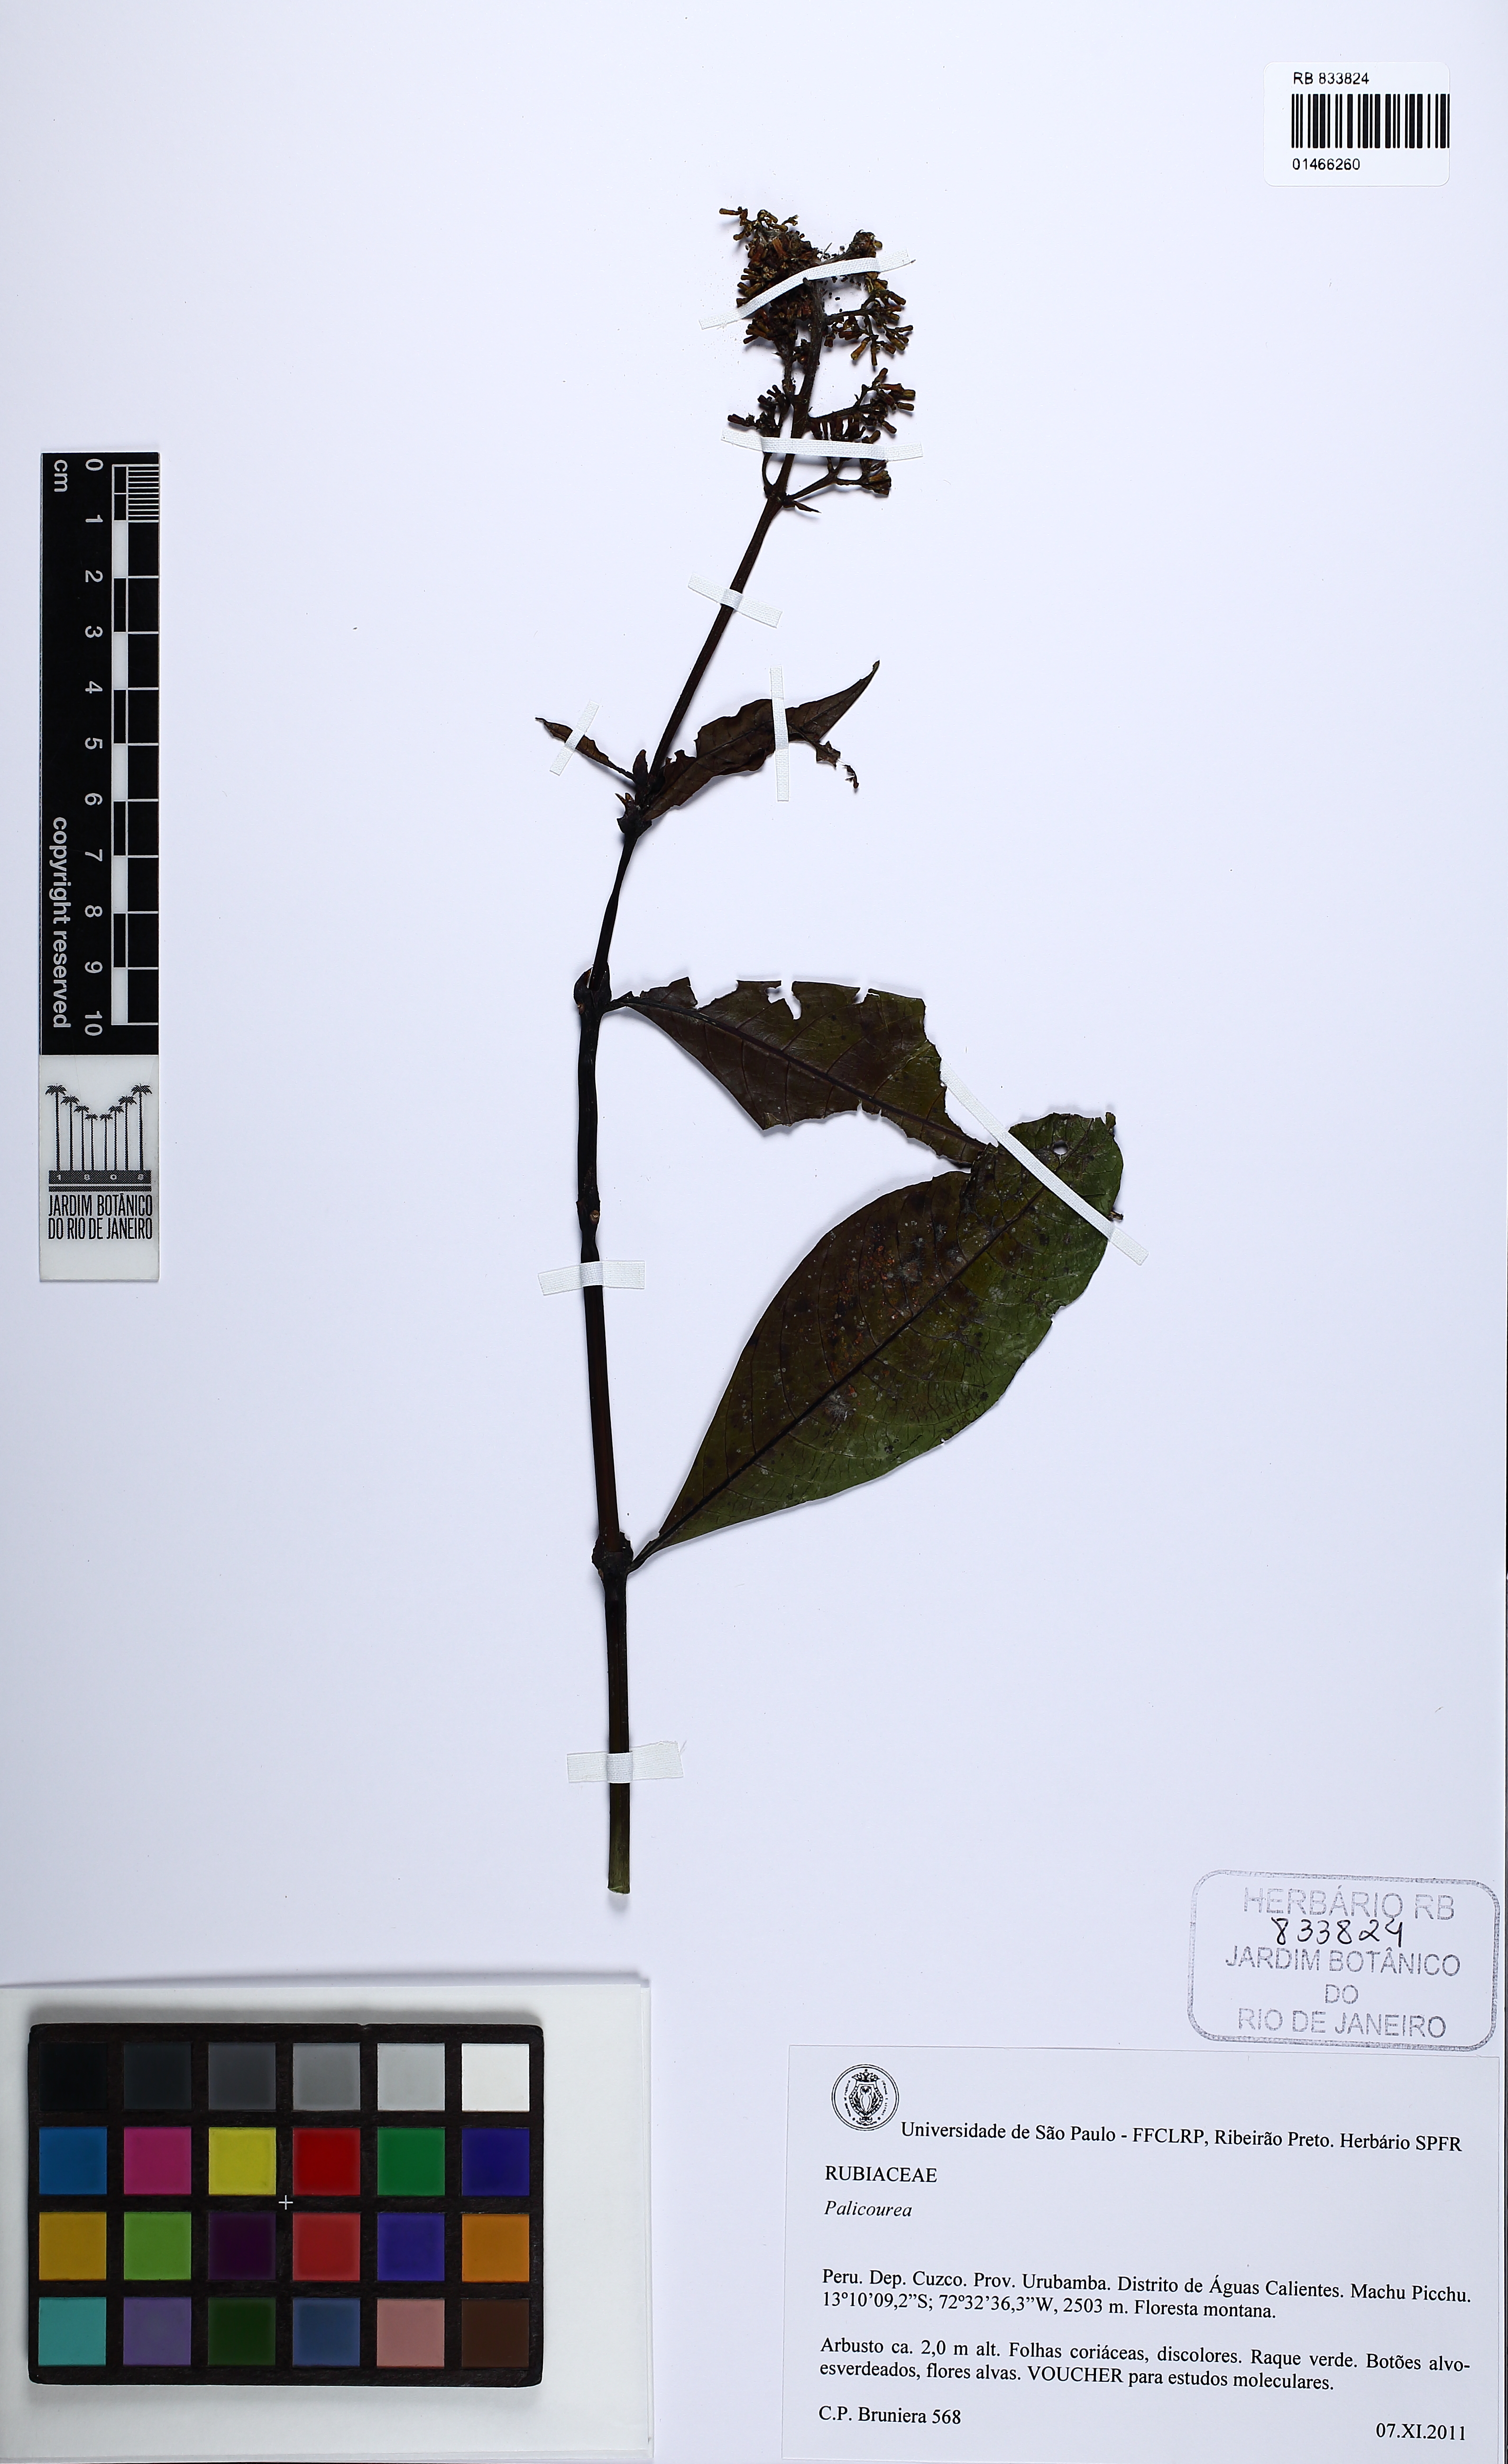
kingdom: Plantae
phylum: Tracheophyta
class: Magnoliopsida
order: Gentianales
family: Rubiaceae
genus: Palicourea
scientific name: Palicourea
